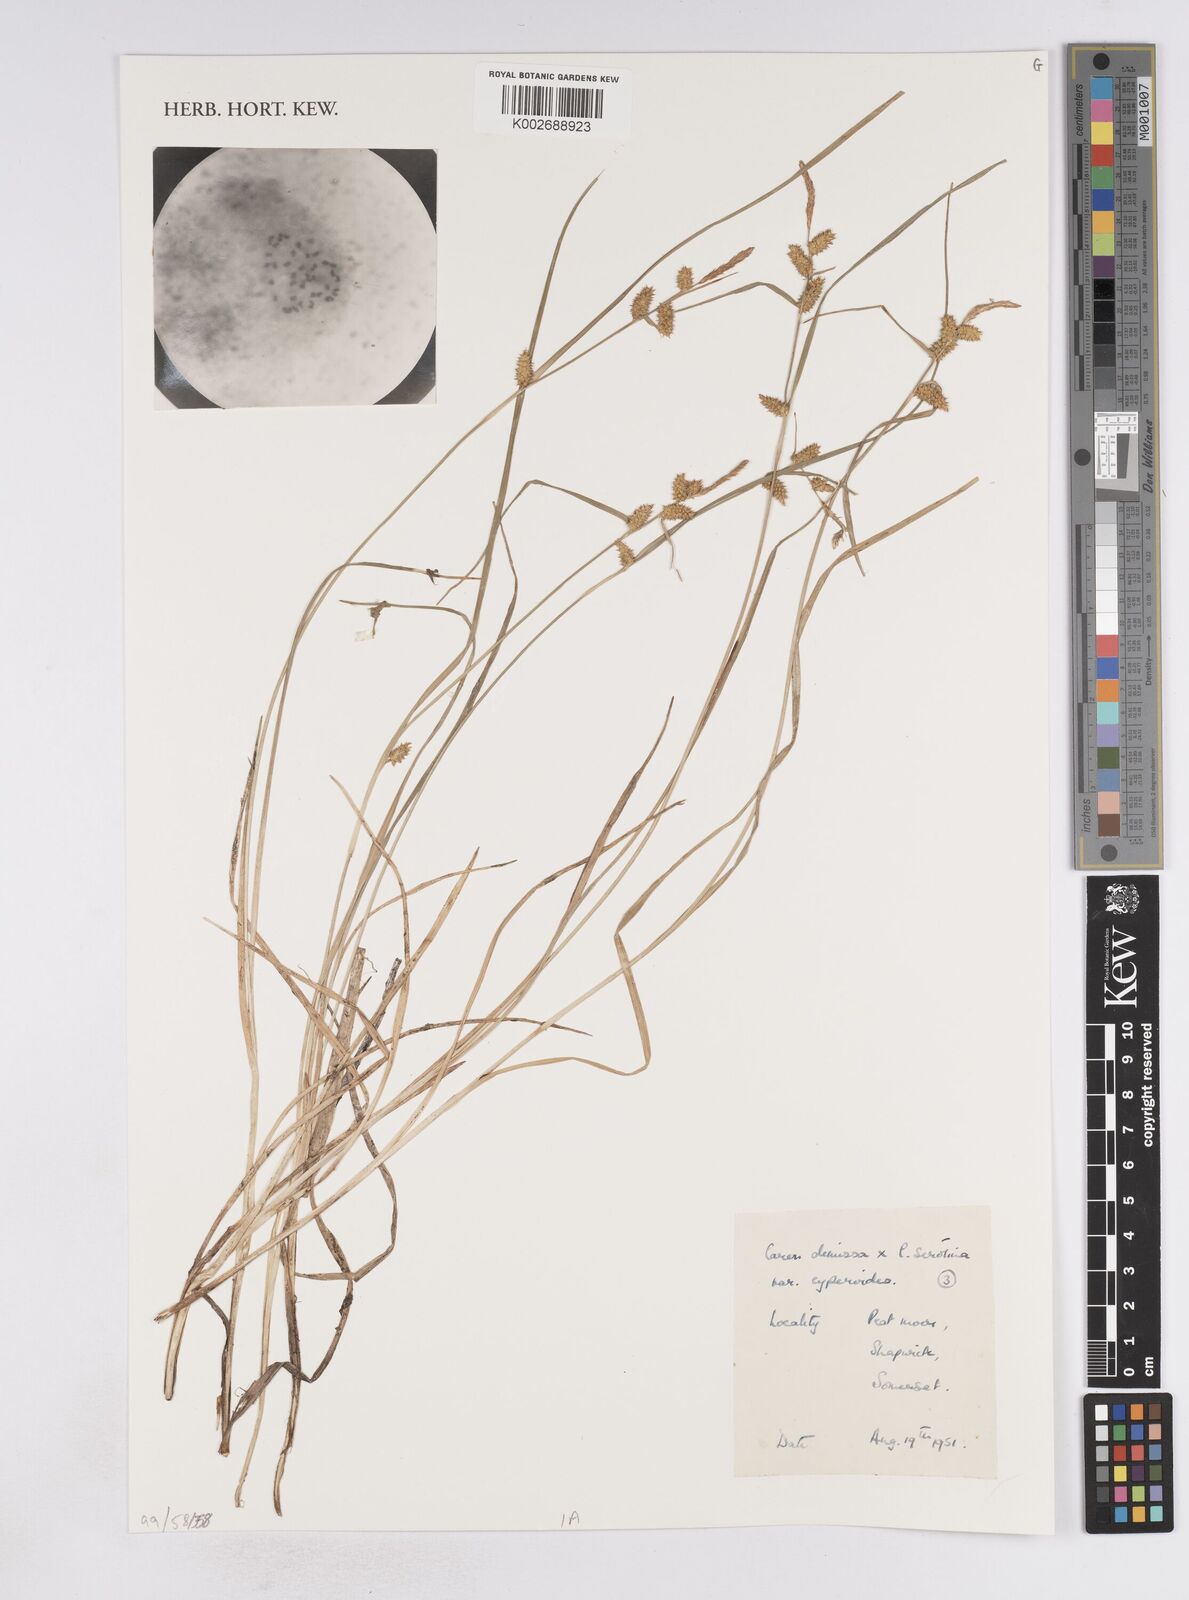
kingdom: Plantae
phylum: Tracheophyta
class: Liliopsida
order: Poales
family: Cyperaceae
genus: Carex
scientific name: Carex demissa
